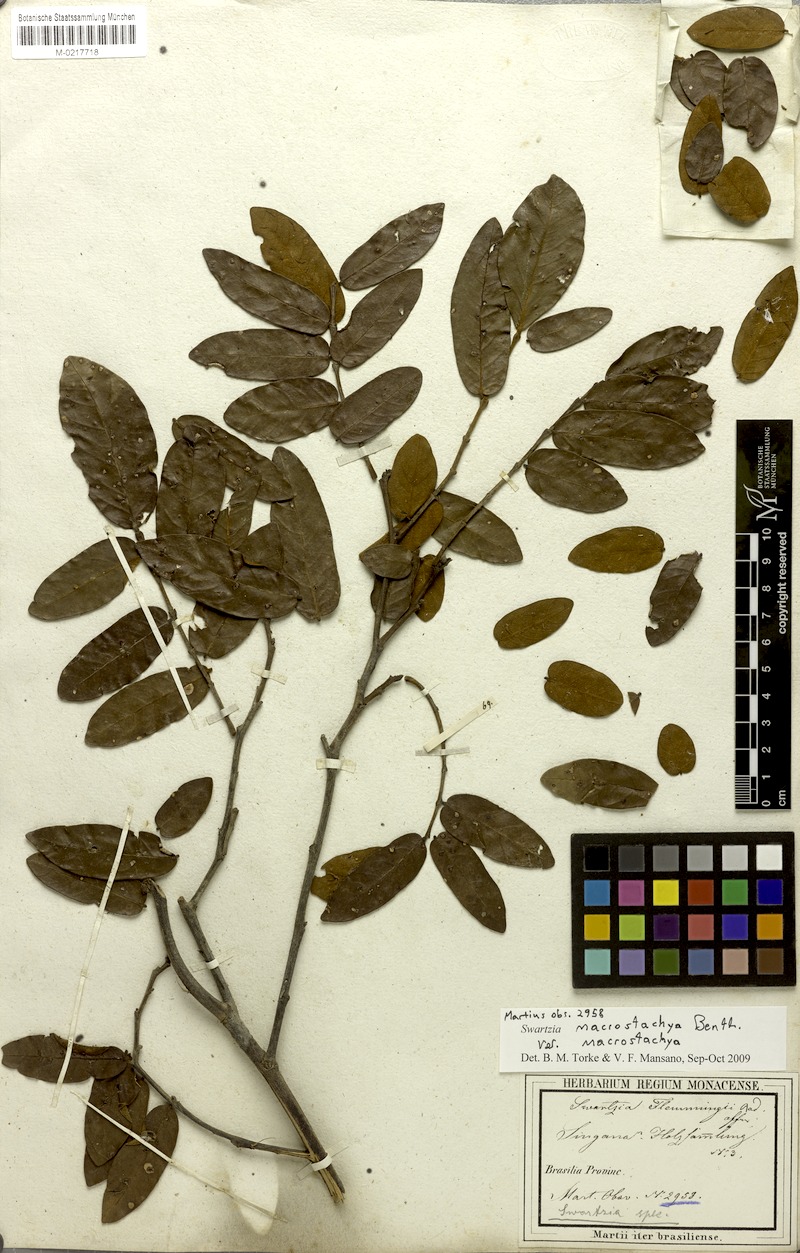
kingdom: Plantae
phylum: Tracheophyta
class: Magnoliopsida
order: Fabales
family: Fabaceae
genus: Swartzia
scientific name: Swartzia macrostachya
